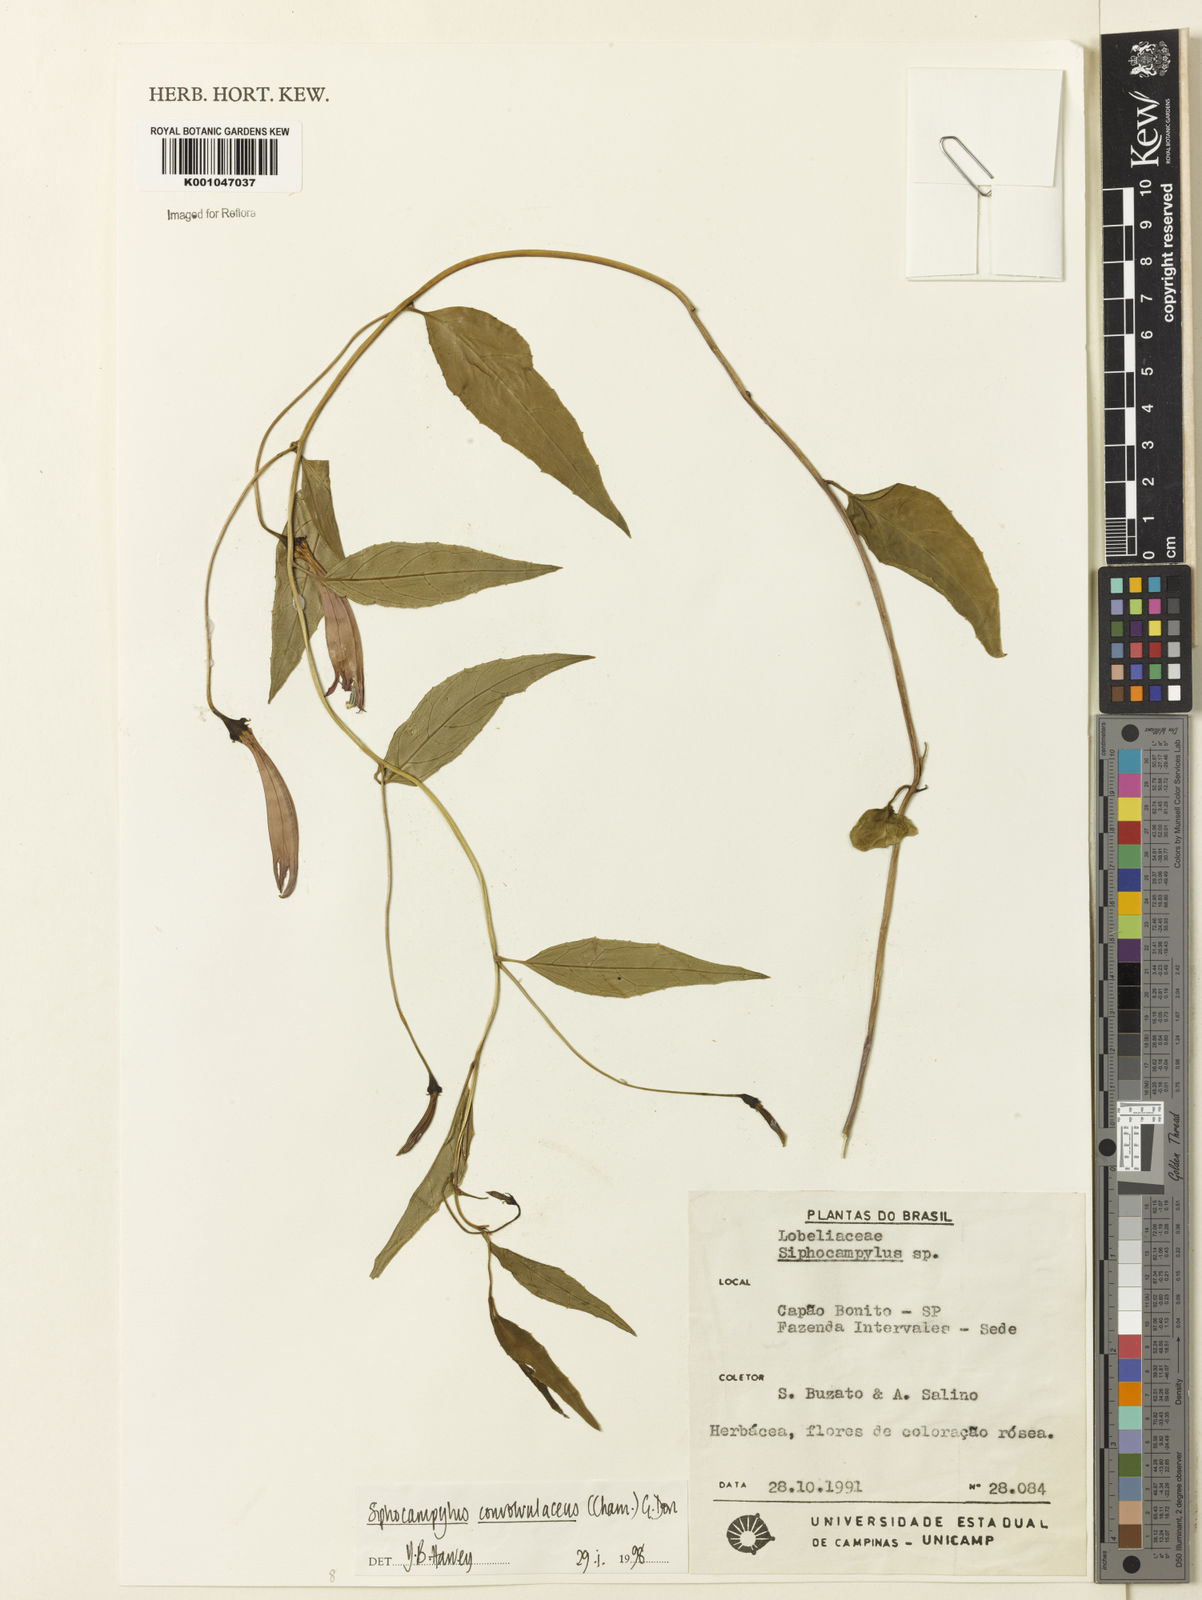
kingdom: Plantae
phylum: Tracheophyta
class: Magnoliopsida
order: Asterales
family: Campanulaceae
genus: Siphocampylus
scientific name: Siphocampylus convolvulaceus
